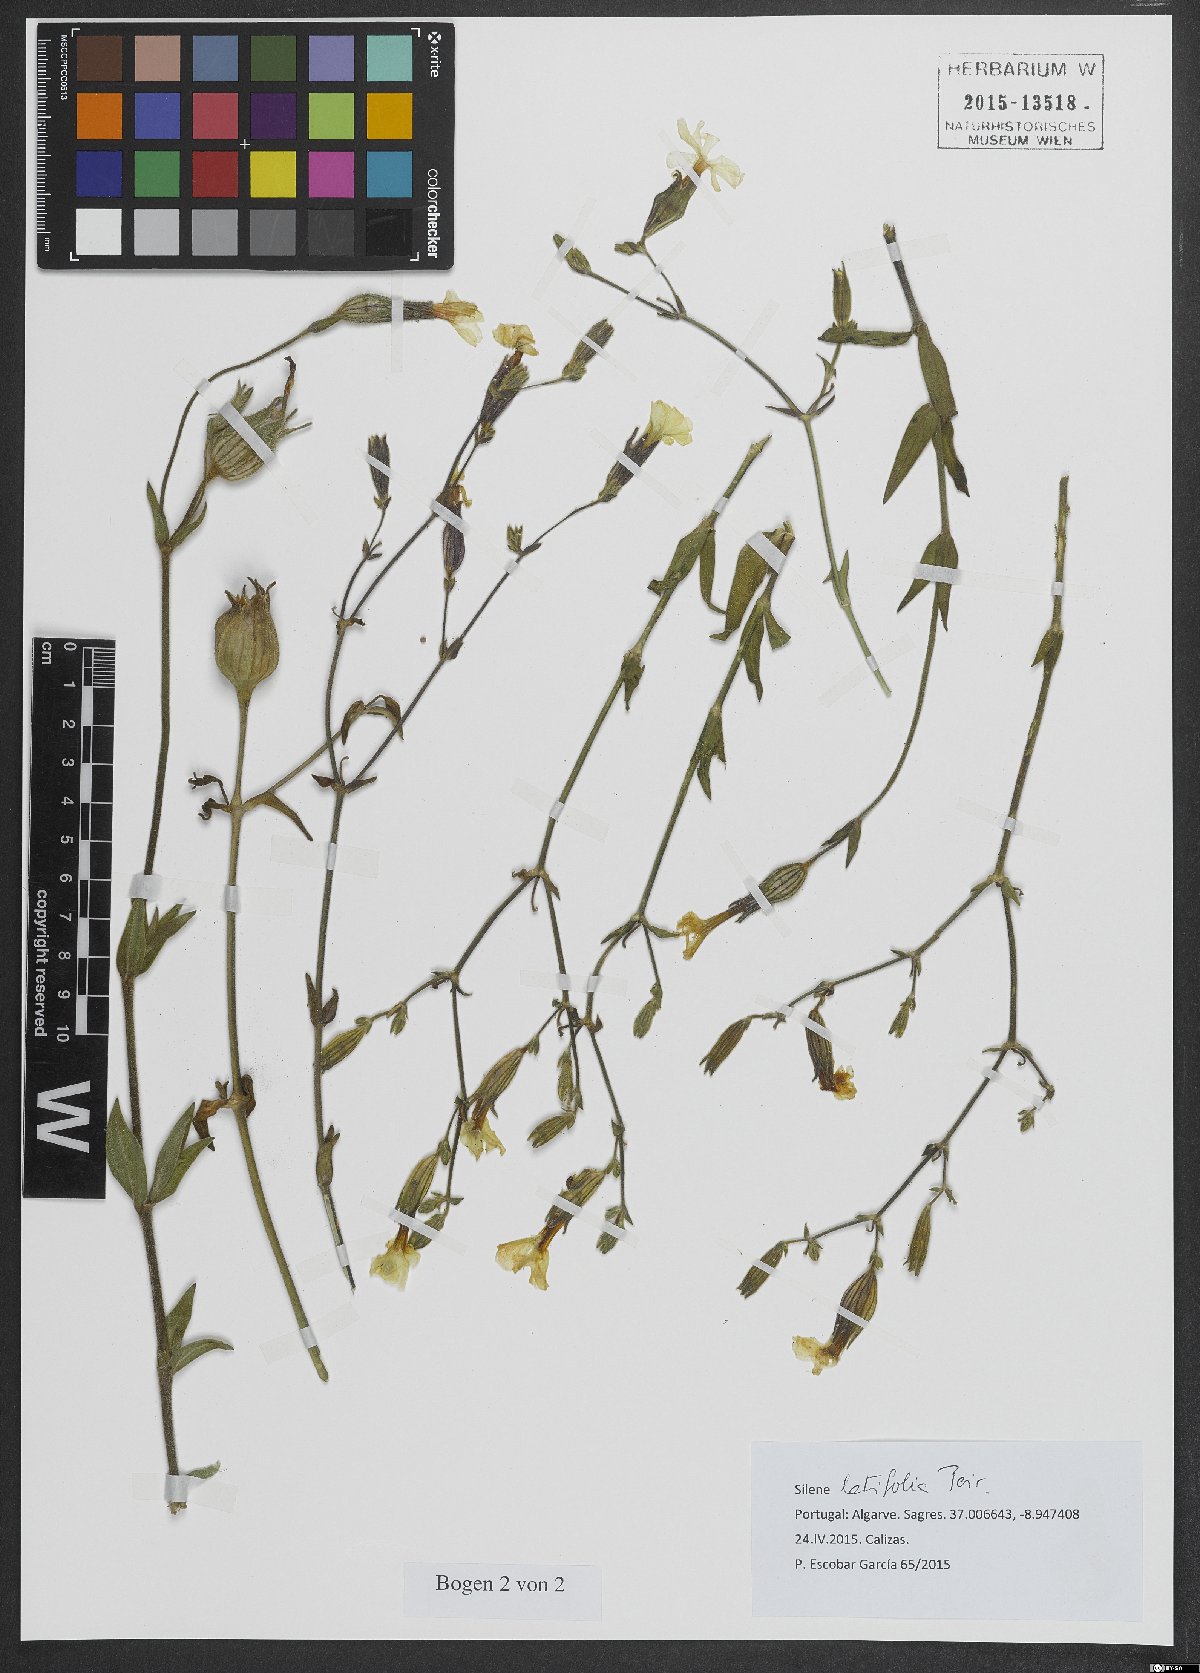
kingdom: Plantae
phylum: Tracheophyta
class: Magnoliopsida
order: Caryophyllales
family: Caryophyllaceae
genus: Silene
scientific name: Silene latifolia
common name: White campion
